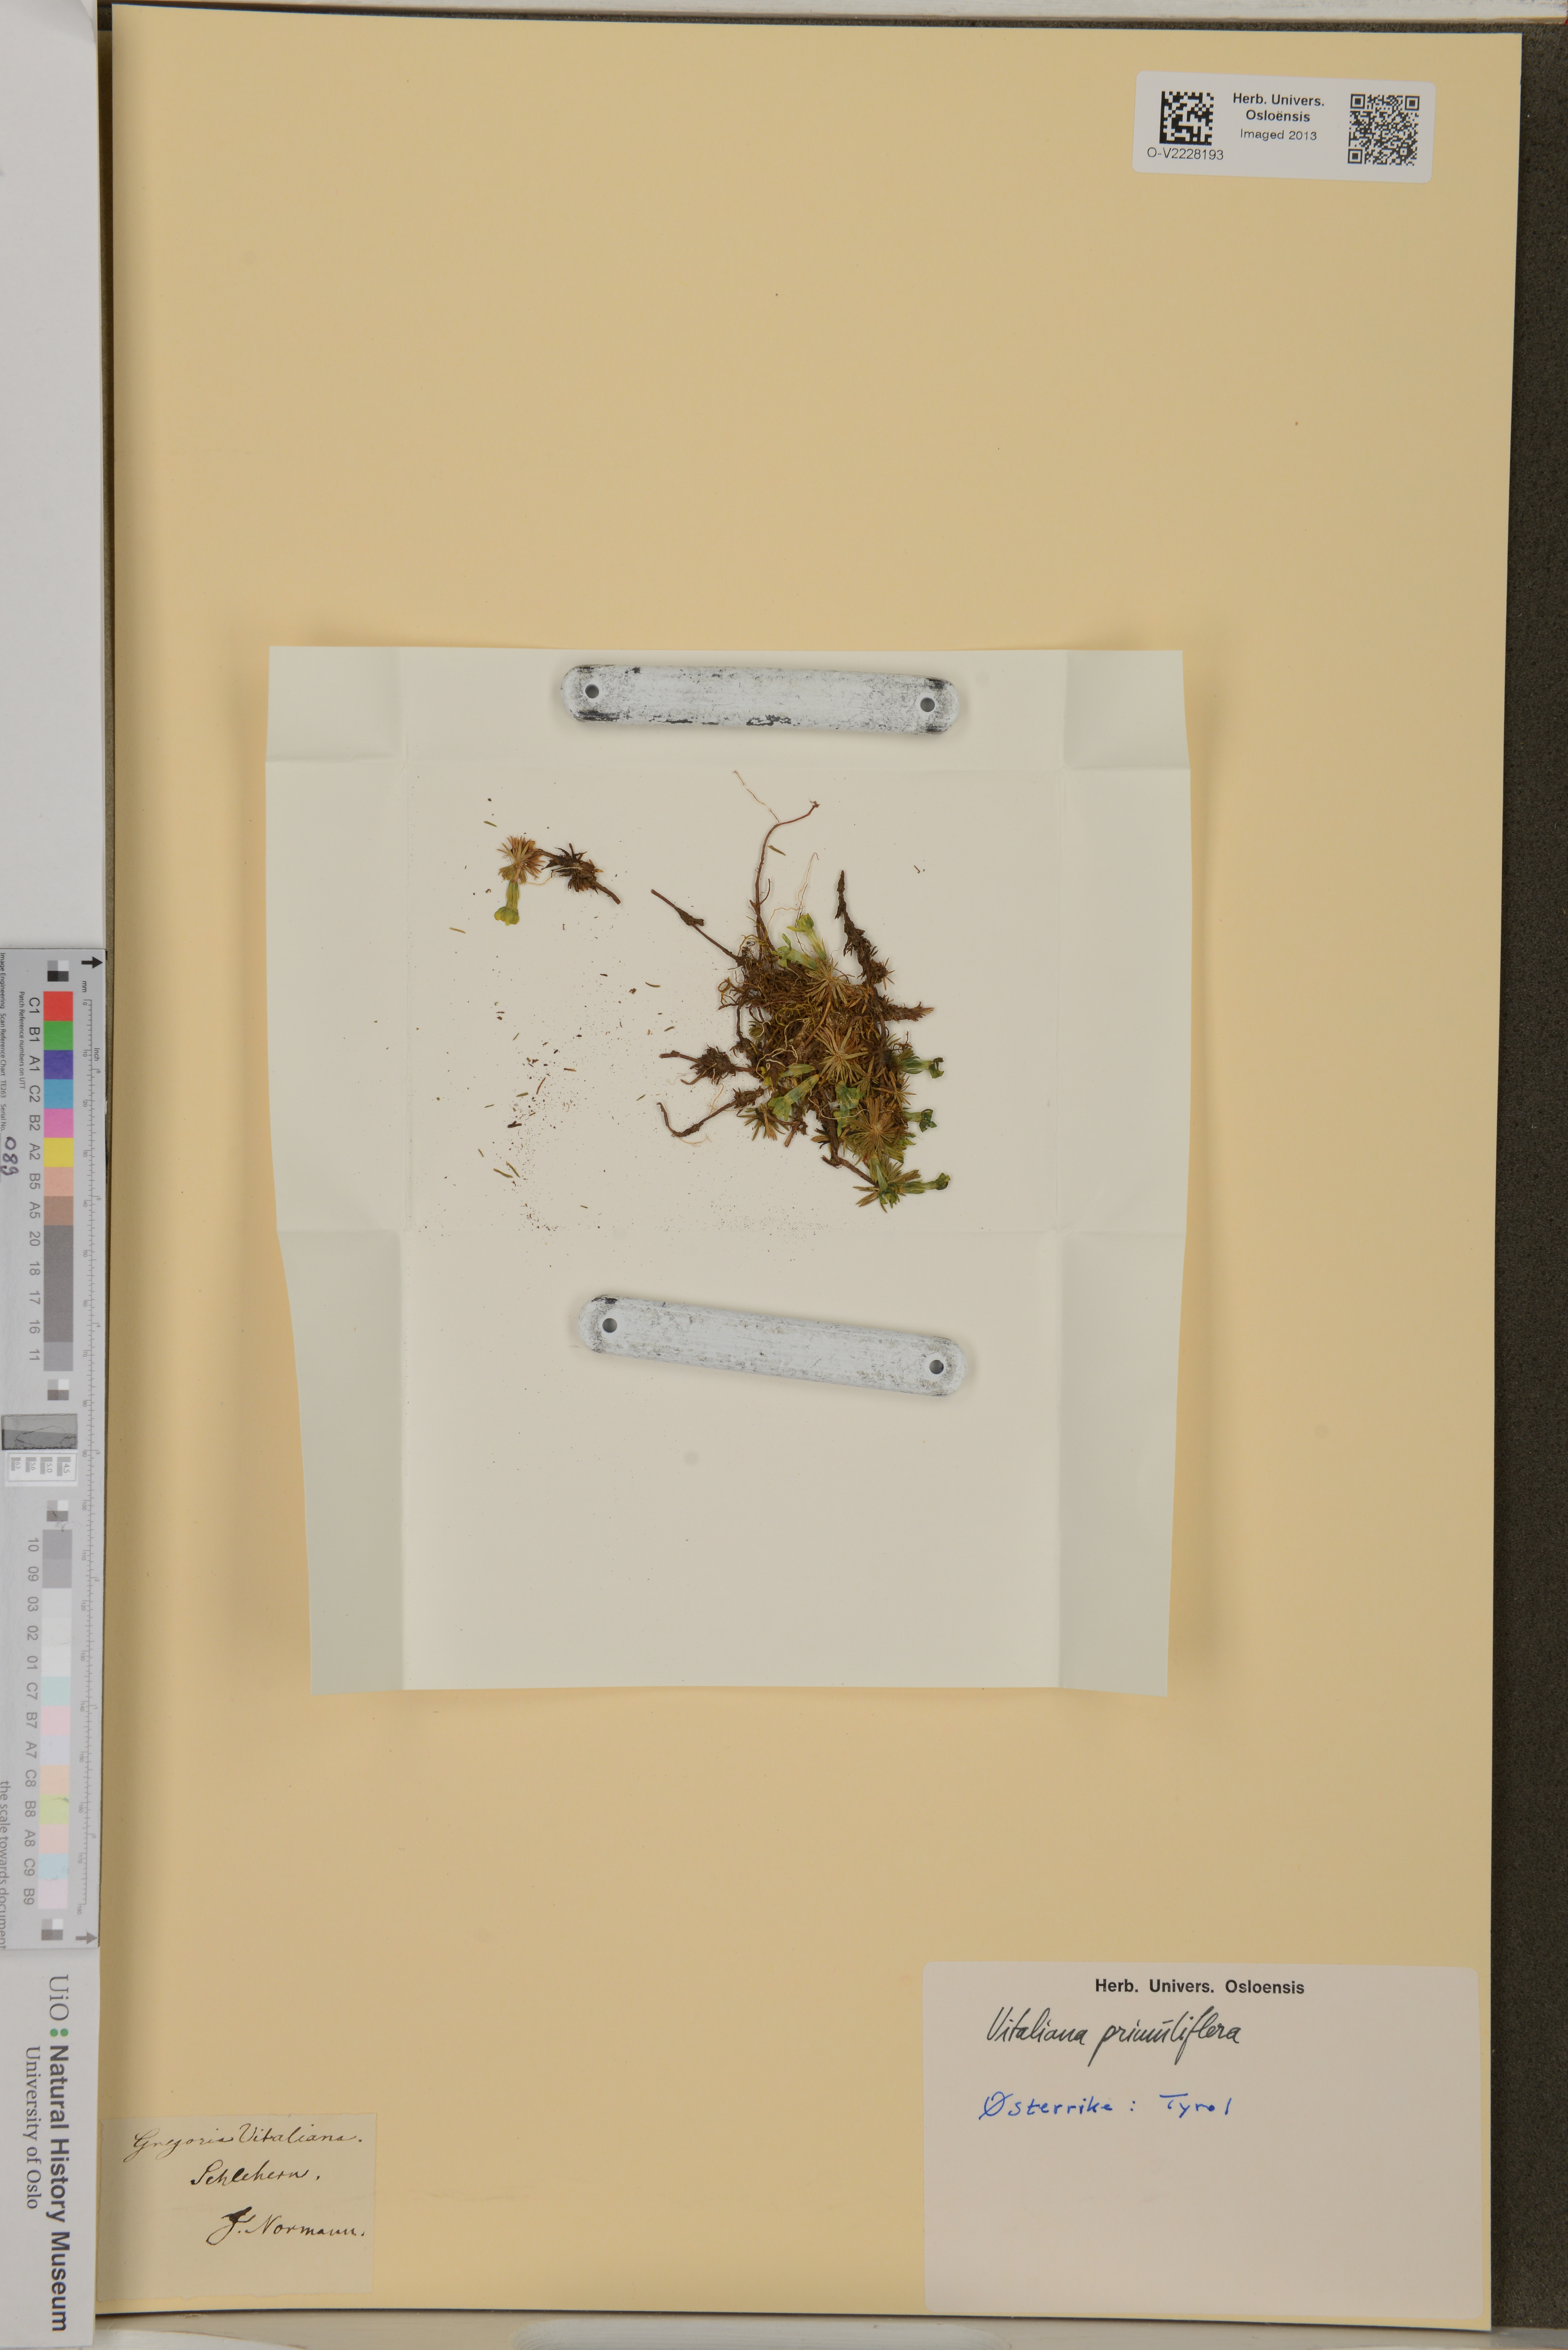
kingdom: Plantae
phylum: Tracheophyta
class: Magnoliopsida
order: Ericales
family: Primulaceae
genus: Androsace
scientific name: Androsace vitaliana
